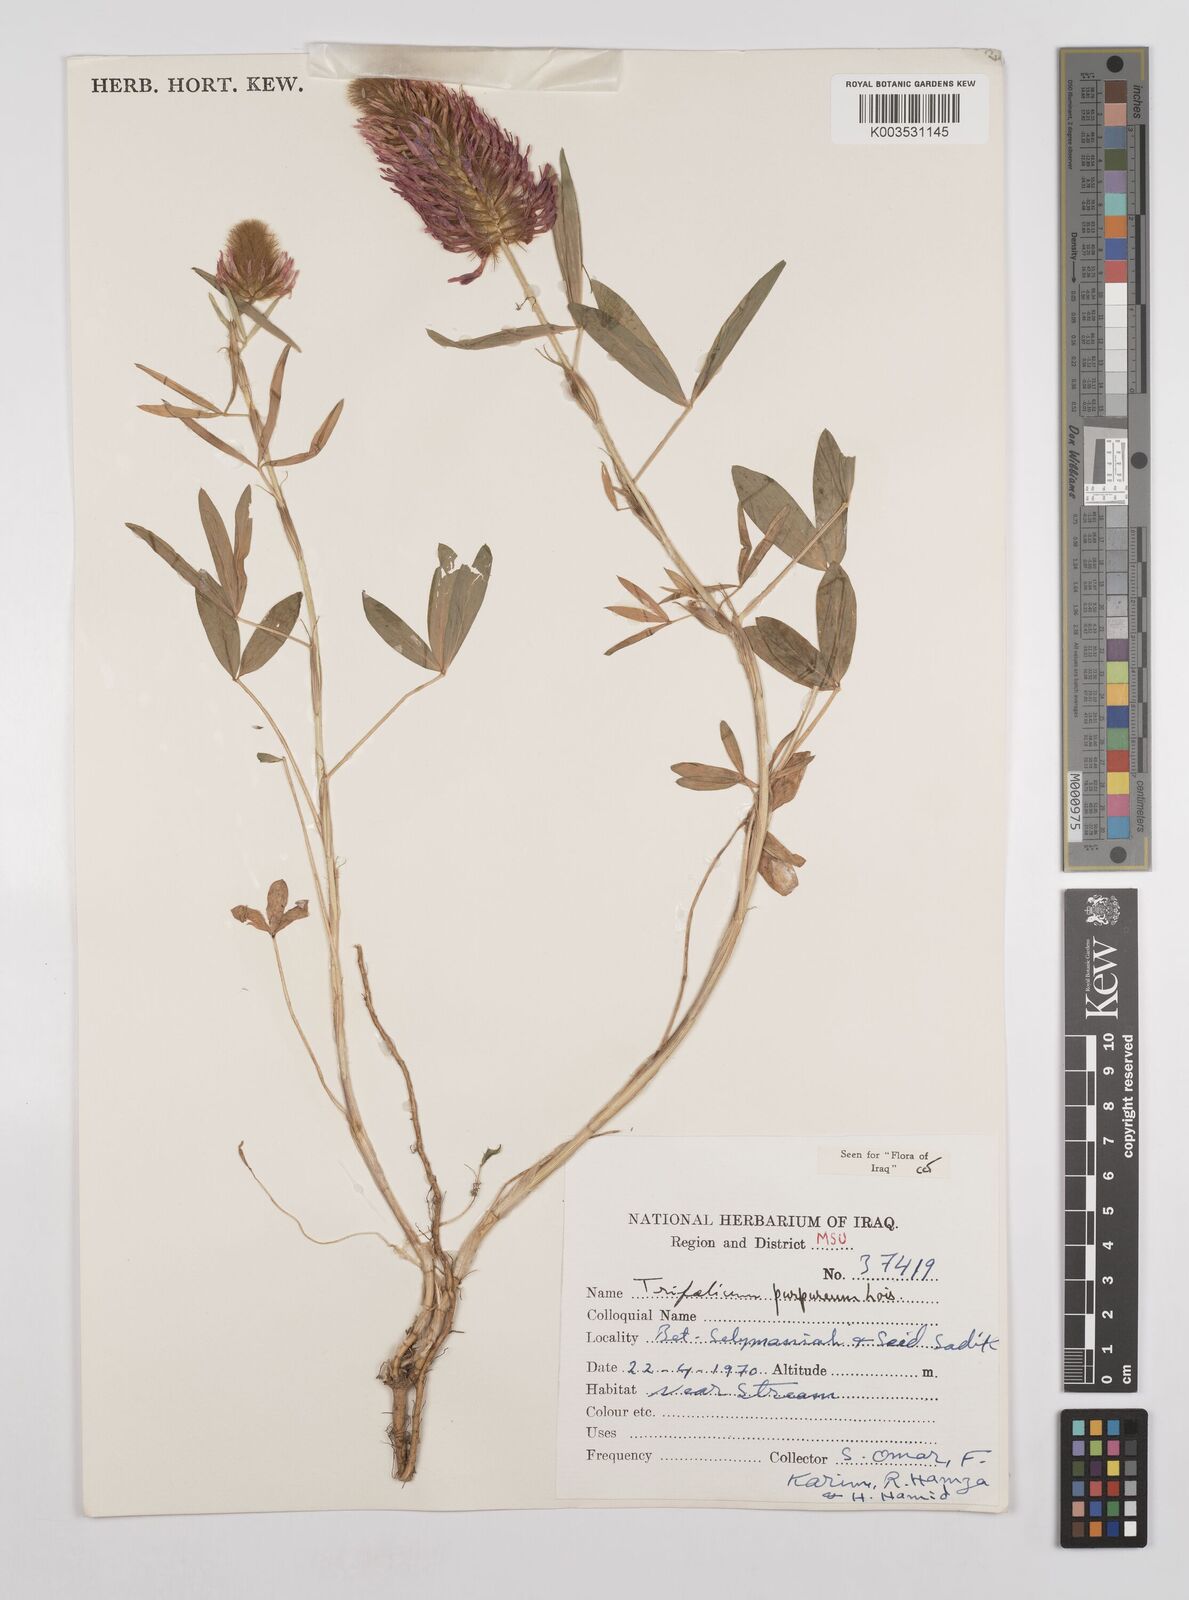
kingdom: Plantae
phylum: Tracheophyta
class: Magnoliopsida
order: Fabales
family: Fabaceae
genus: Trifolium
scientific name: Trifolium purpureum
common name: Purple clover
